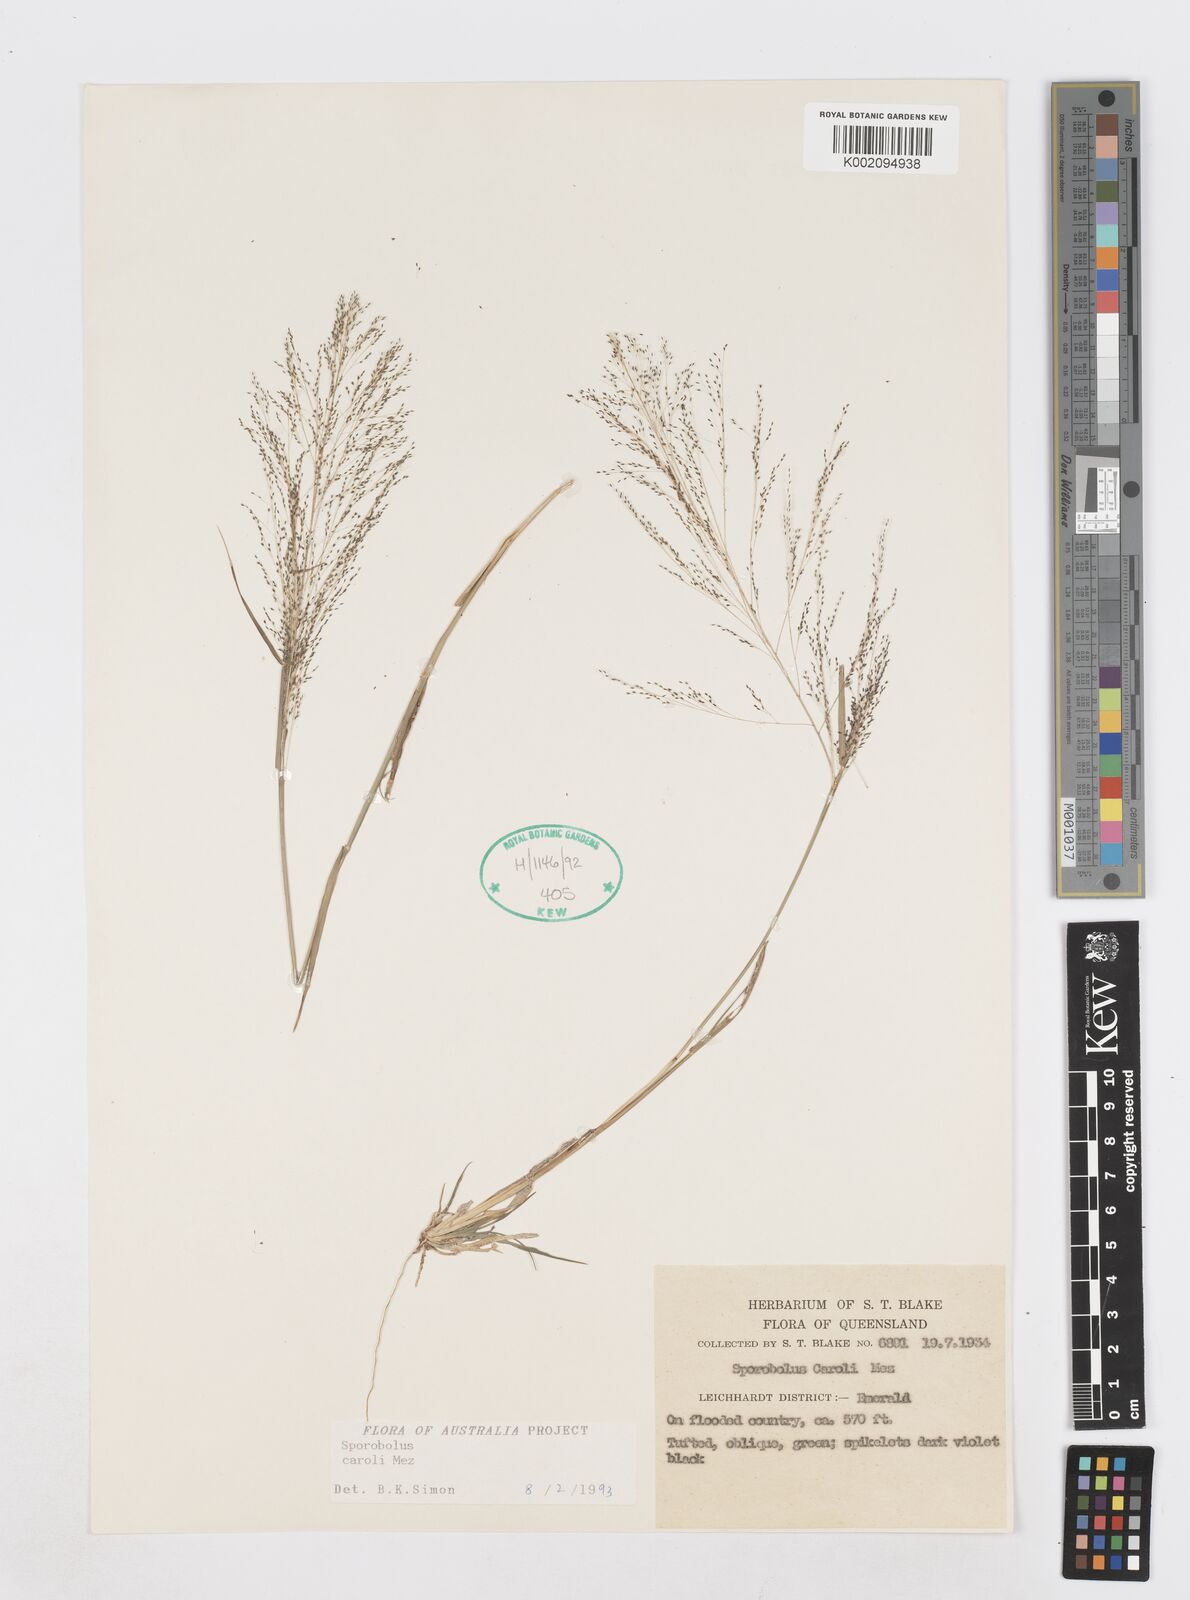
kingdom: Plantae
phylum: Tracheophyta
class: Liliopsida
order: Poales
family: Poaceae
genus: Sporobolus
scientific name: Sporobolus caroli
